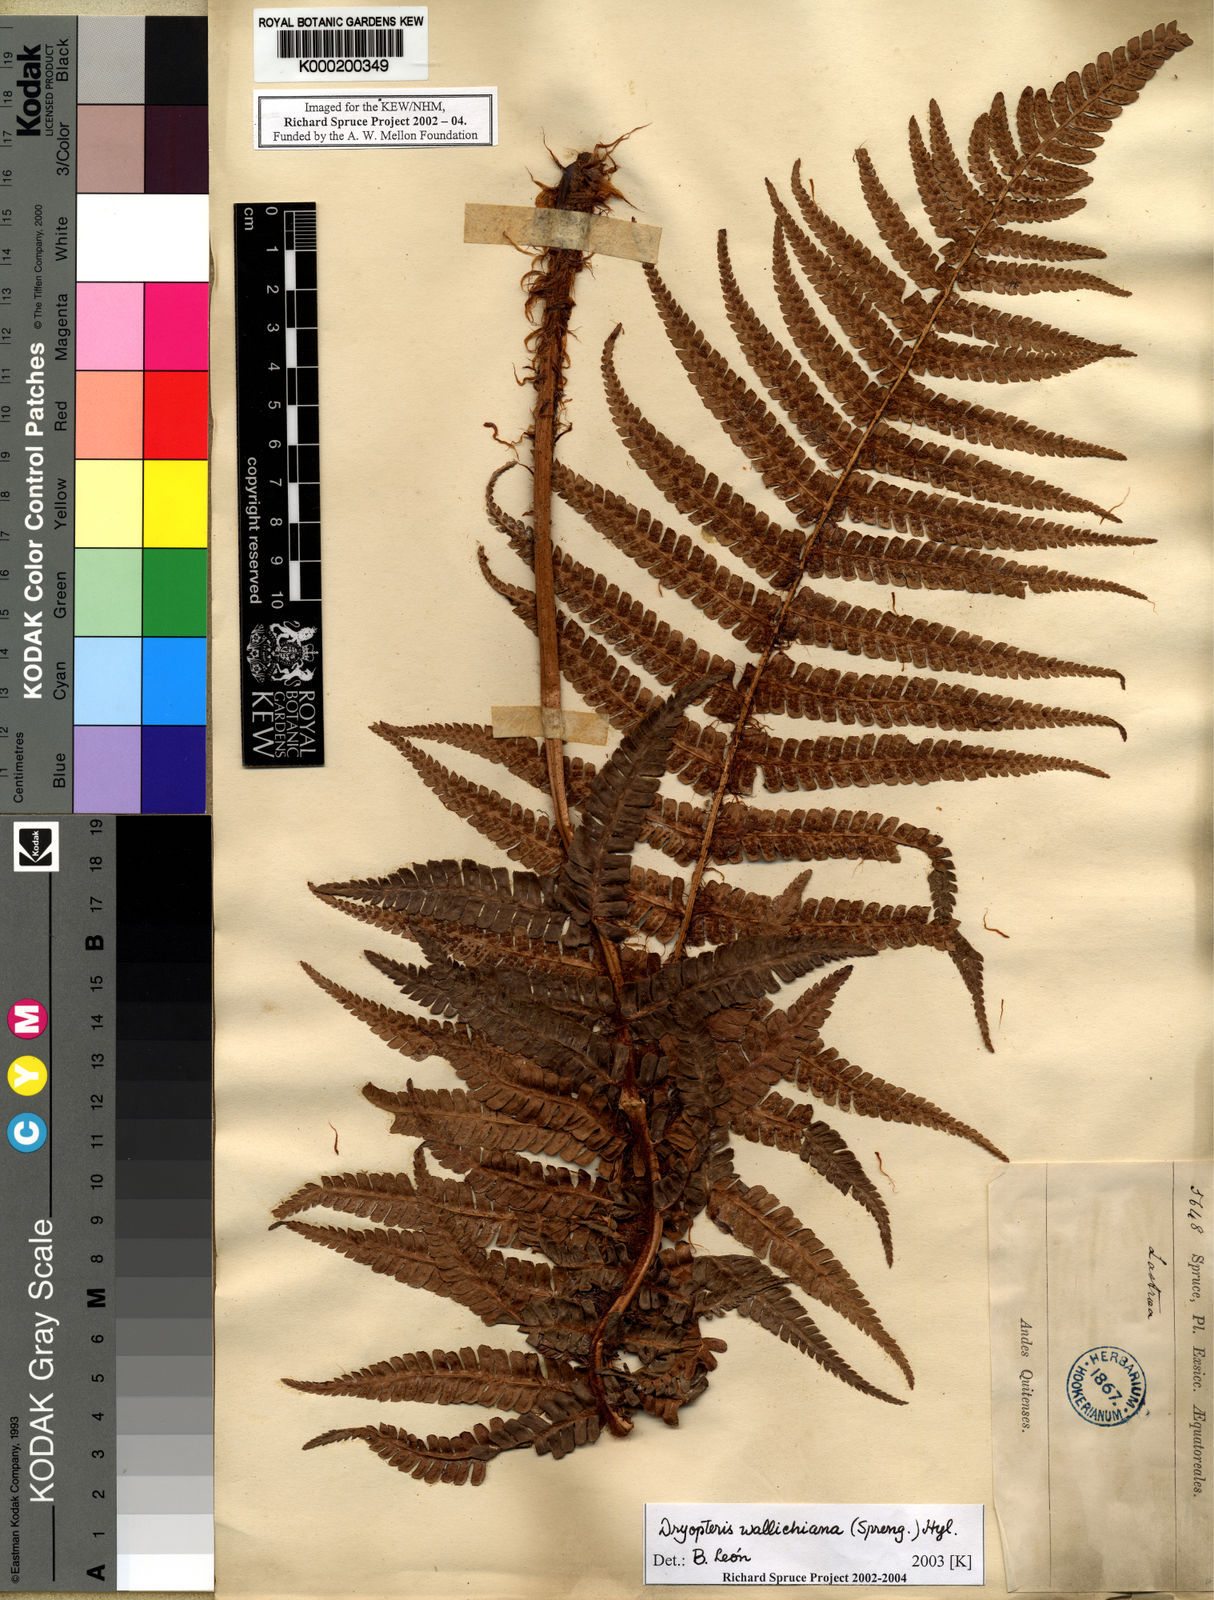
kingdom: Plantae
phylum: Tracheophyta
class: Polypodiopsida
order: Polypodiales
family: Dryopteridaceae
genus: Dryopteris
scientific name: Dryopteris
